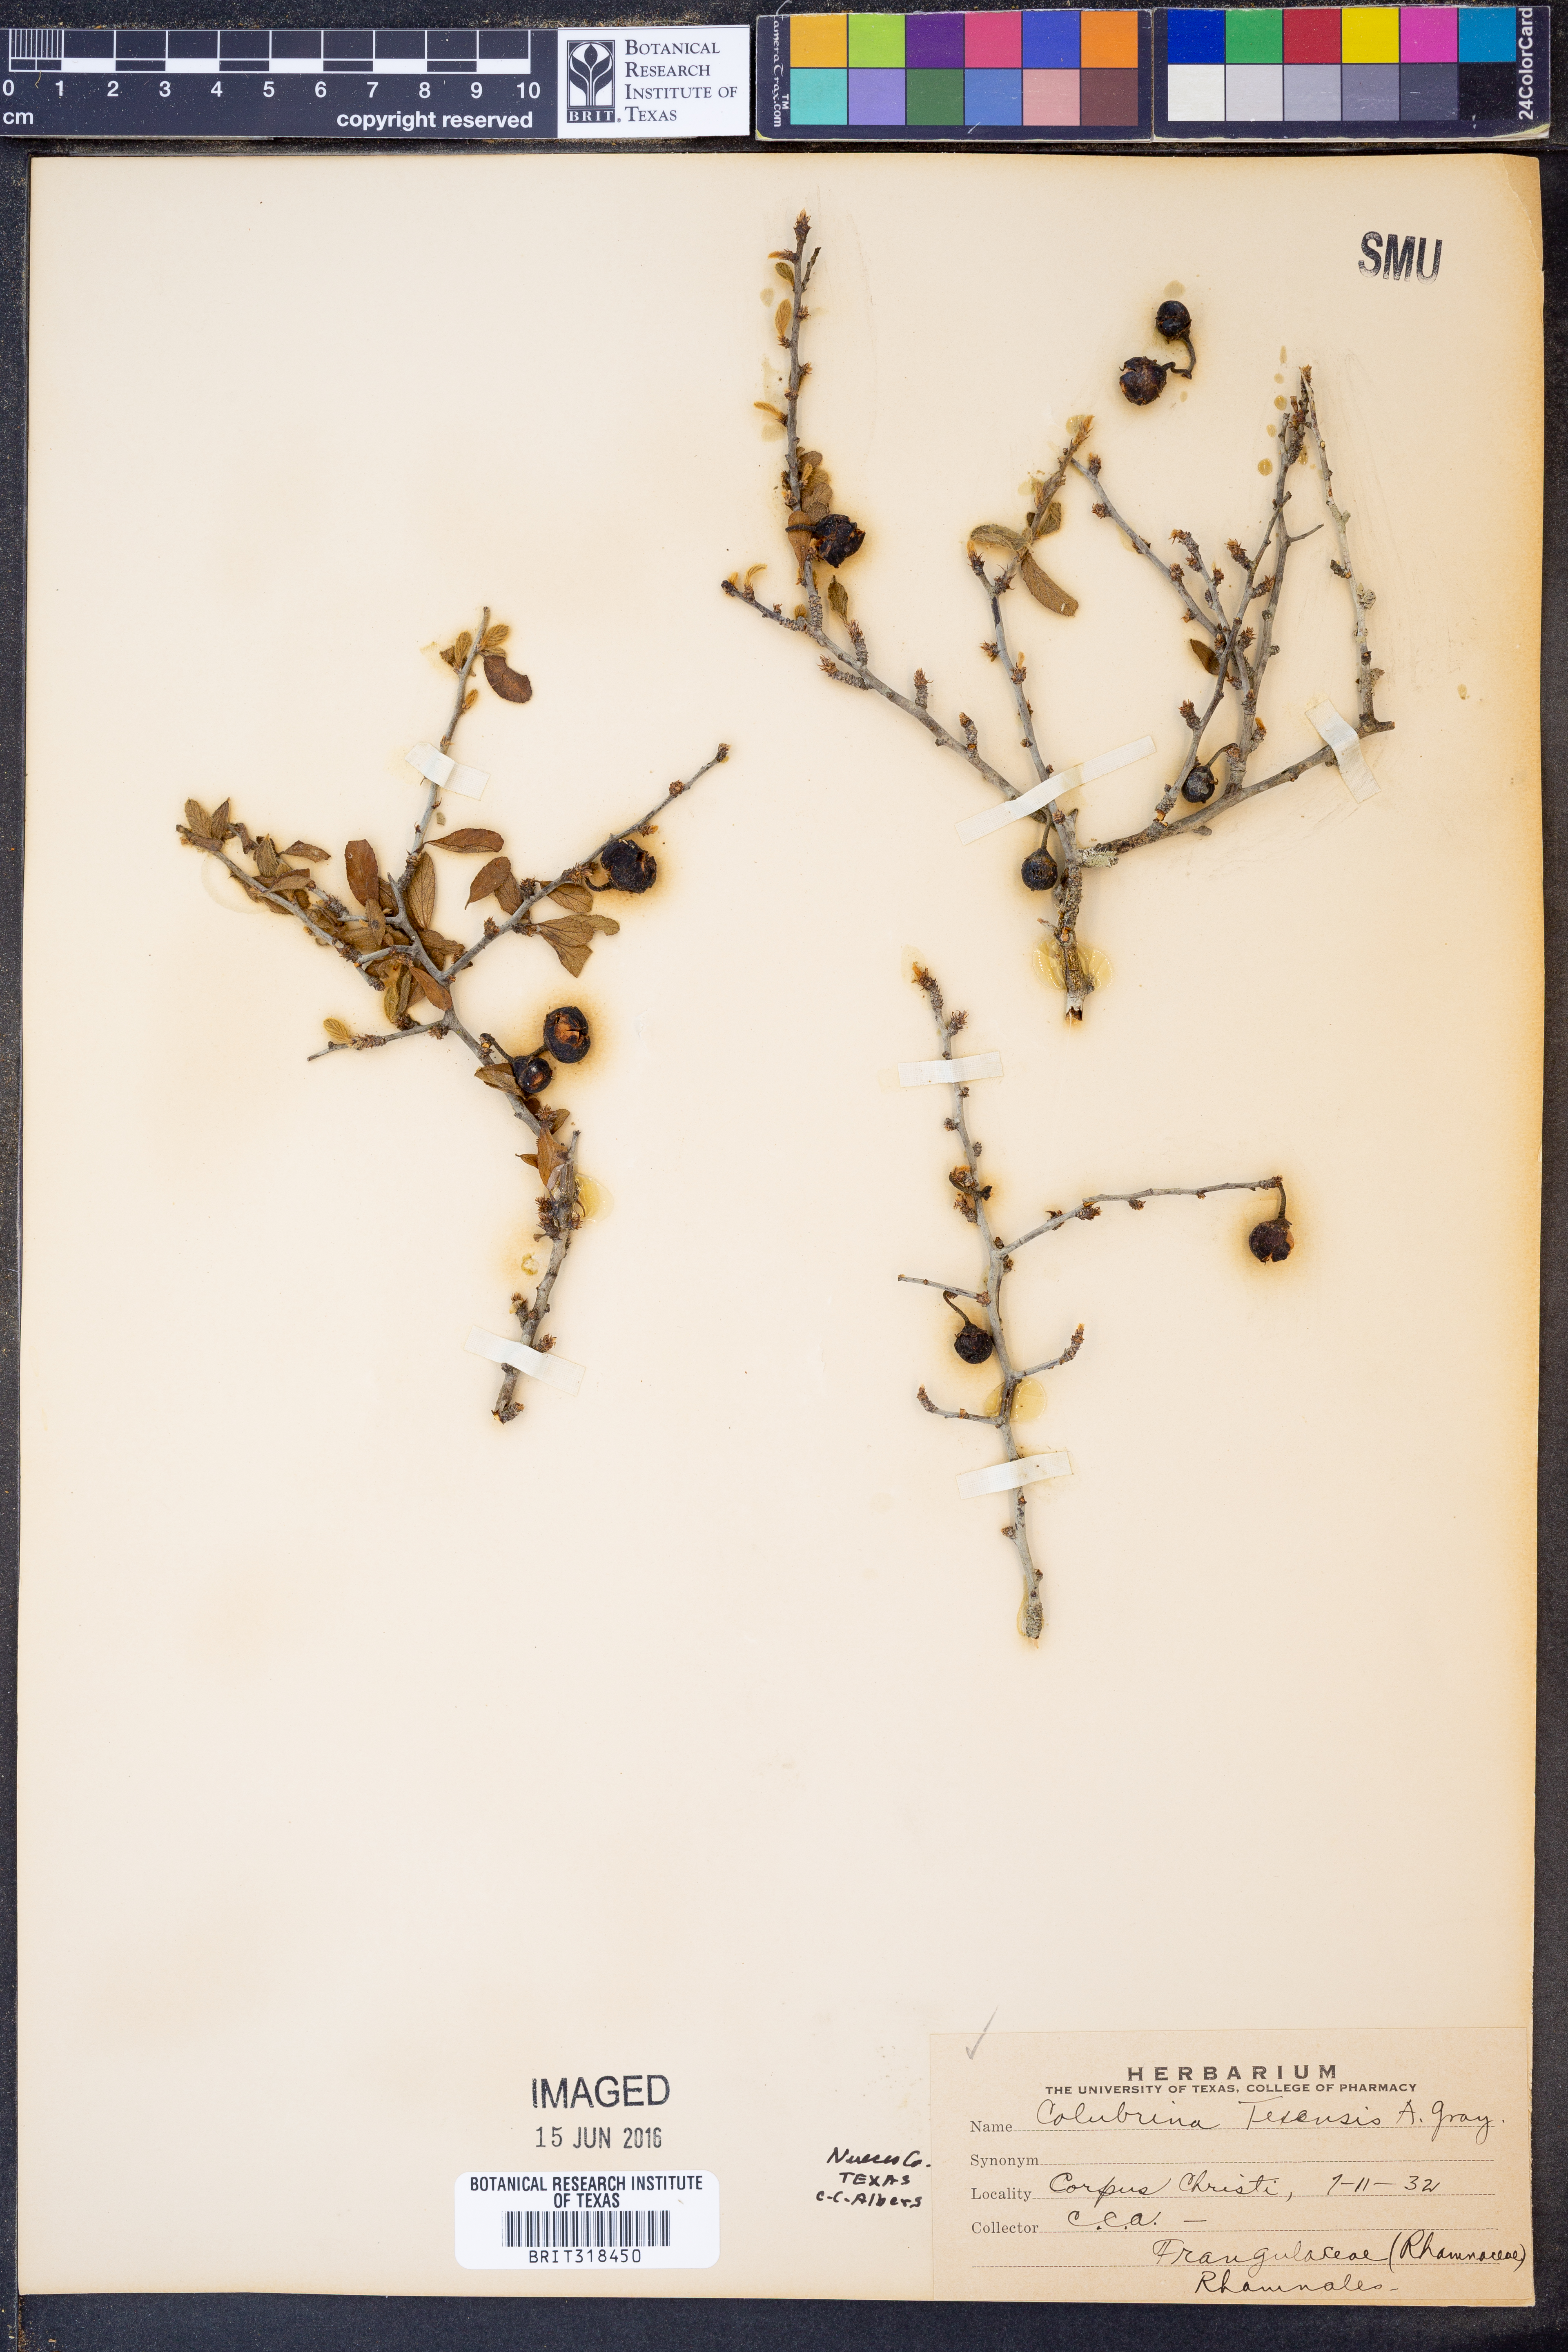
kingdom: Plantae
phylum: Tracheophyta
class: Magnoliopsida
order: Rosales
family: Rhamnaceae
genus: Colubrina
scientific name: Colubrina texensis
